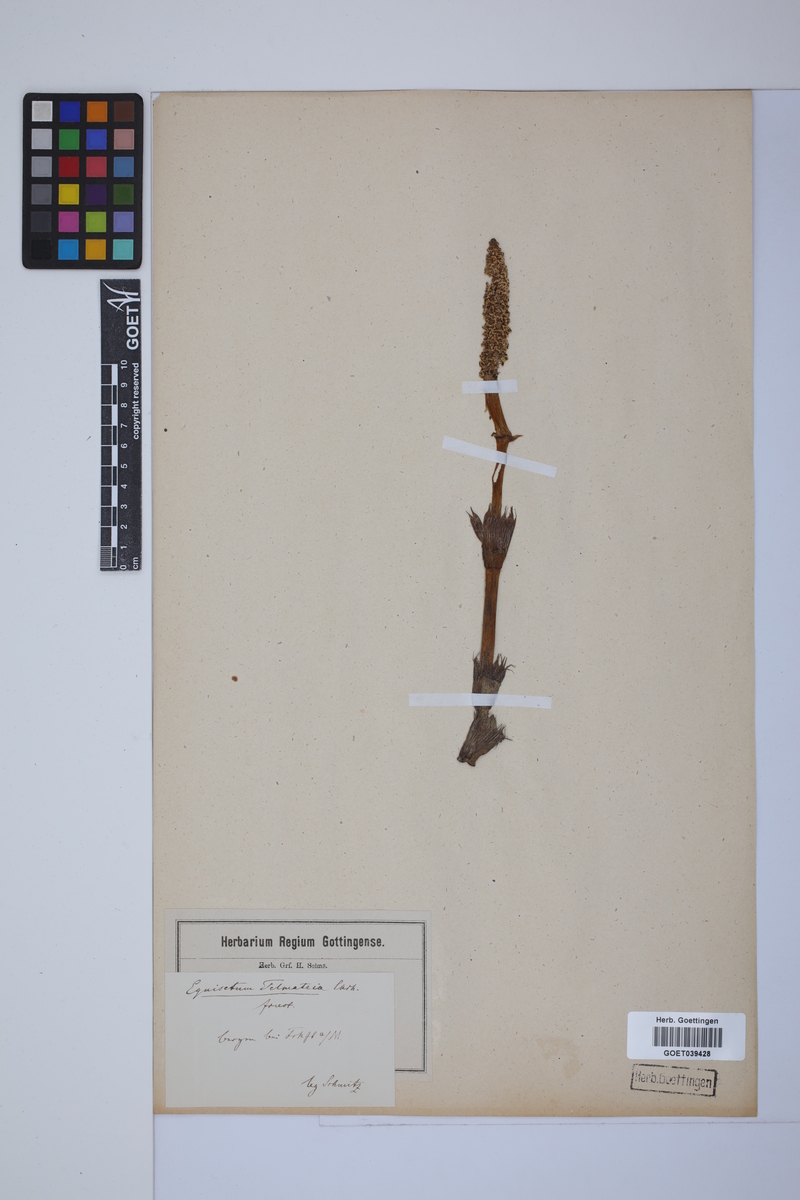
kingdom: Plantae
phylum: Tracheophyta
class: Polypodiopsida
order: Equisetales
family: Equisetaceae
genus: Equisetum
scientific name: Equisetum telmateia
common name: Great horsetail
